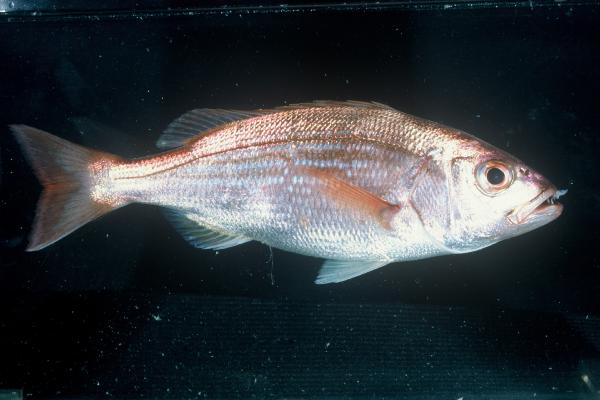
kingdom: Animalia
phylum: Chordata
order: Perciformes
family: Sparidae
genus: Argyrozona
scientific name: Argyrozona argyrozona
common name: Carpenter
